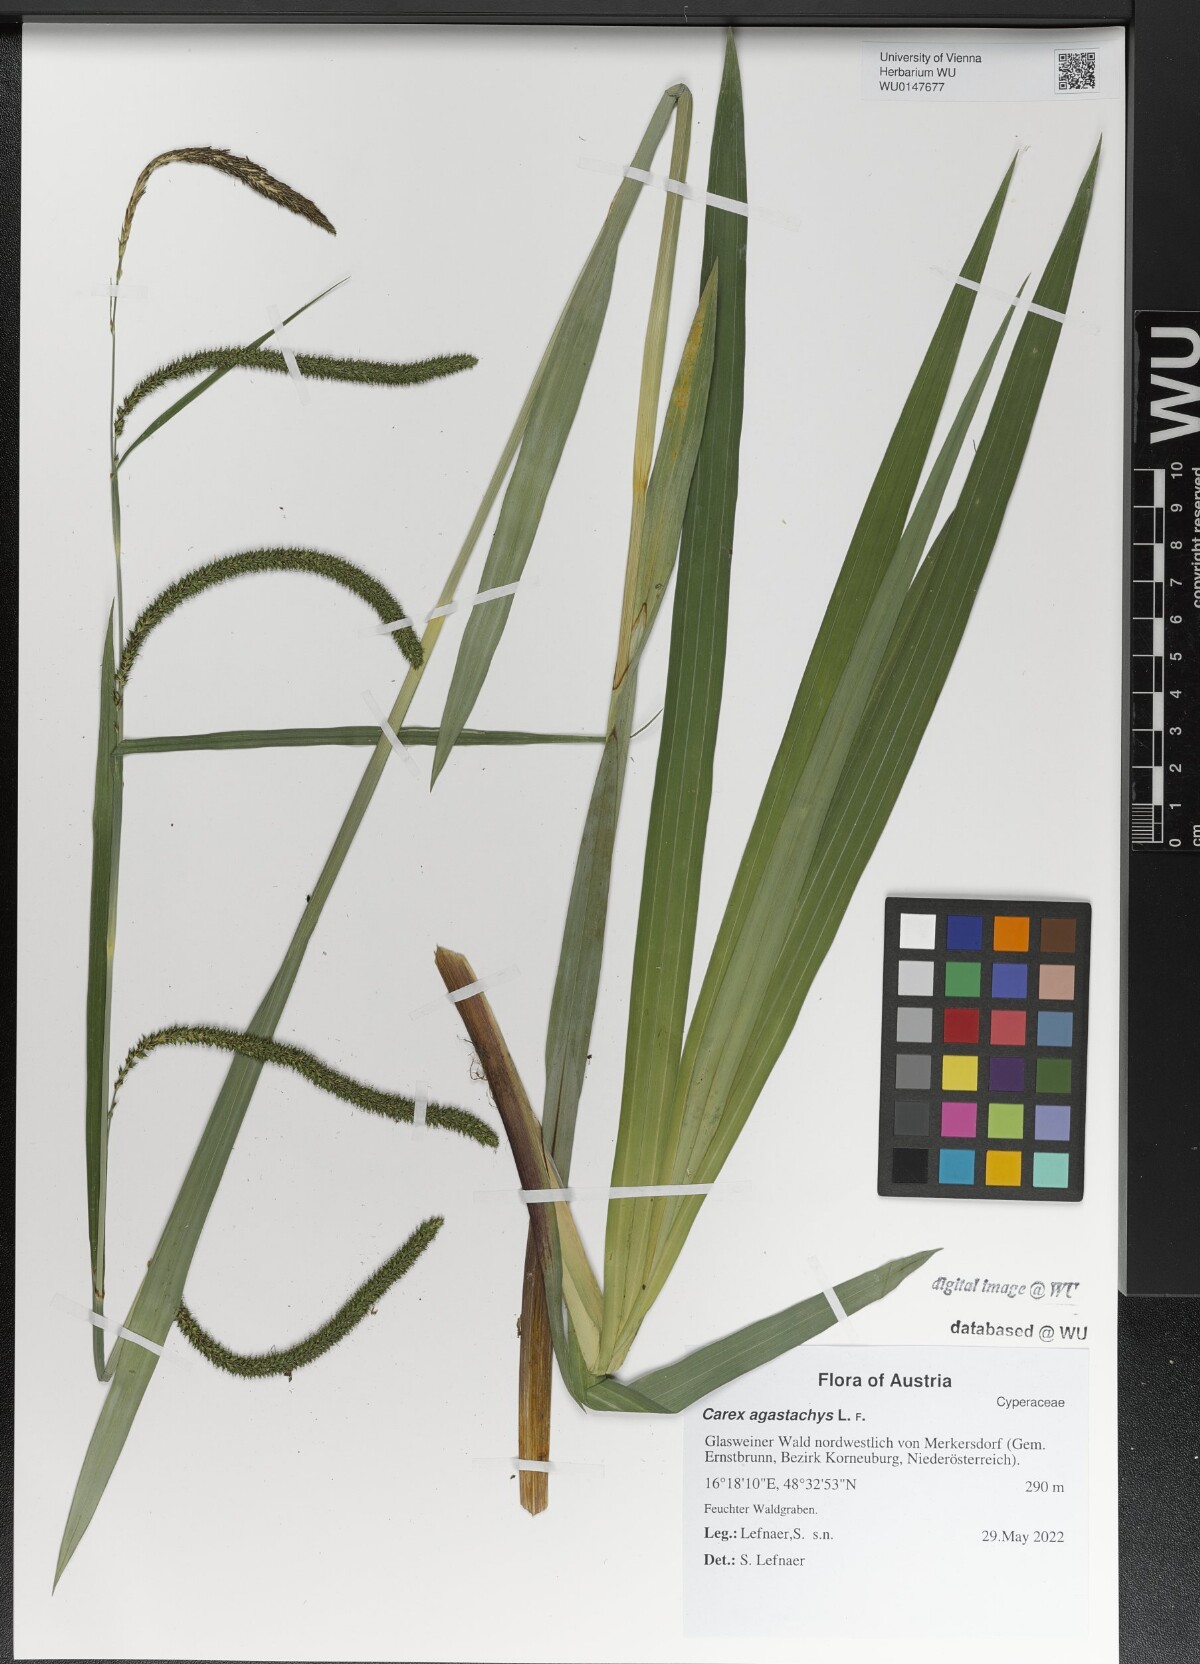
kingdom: Plantae
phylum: Tracheophyta
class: Liliopsida
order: Poales
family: Cyperaceae
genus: Carex
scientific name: Carex agastachys
